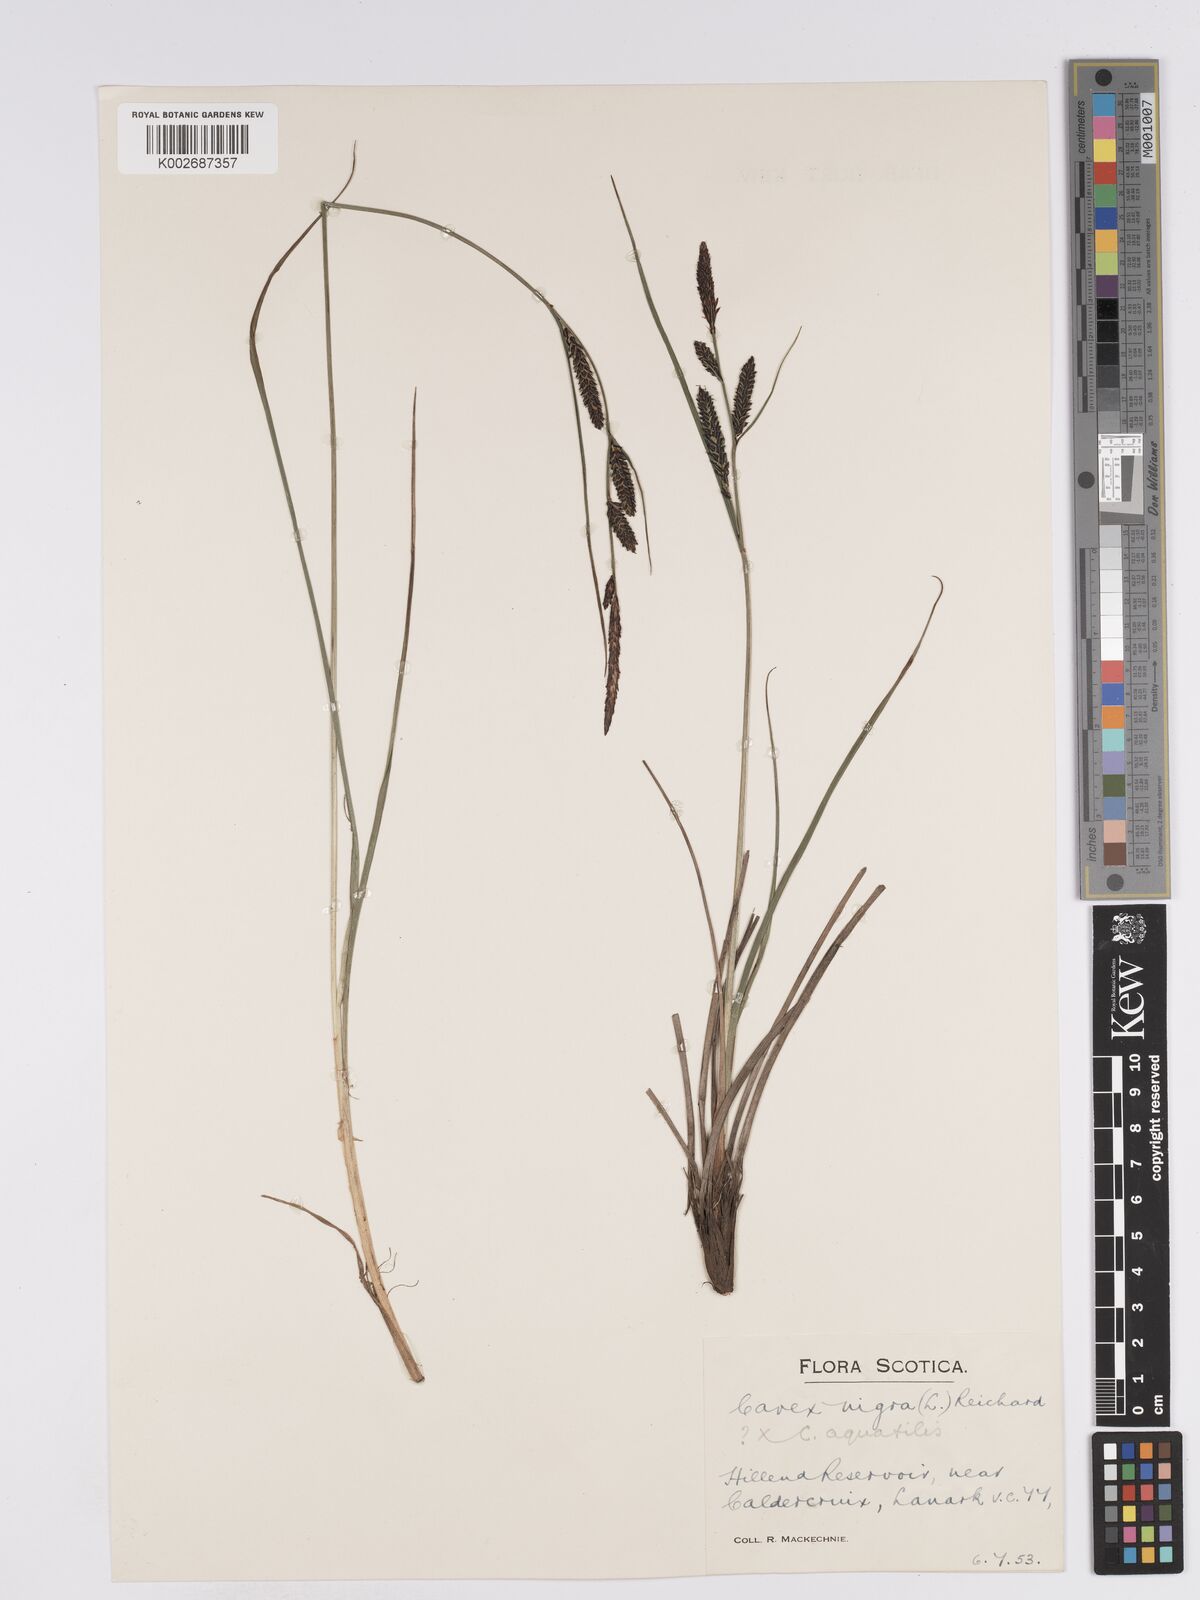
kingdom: Plantae
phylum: Tracheophyta
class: Liliopsida
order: Poales
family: Cyperaceae
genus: Carex
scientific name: Carex nigra
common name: Common sedge
